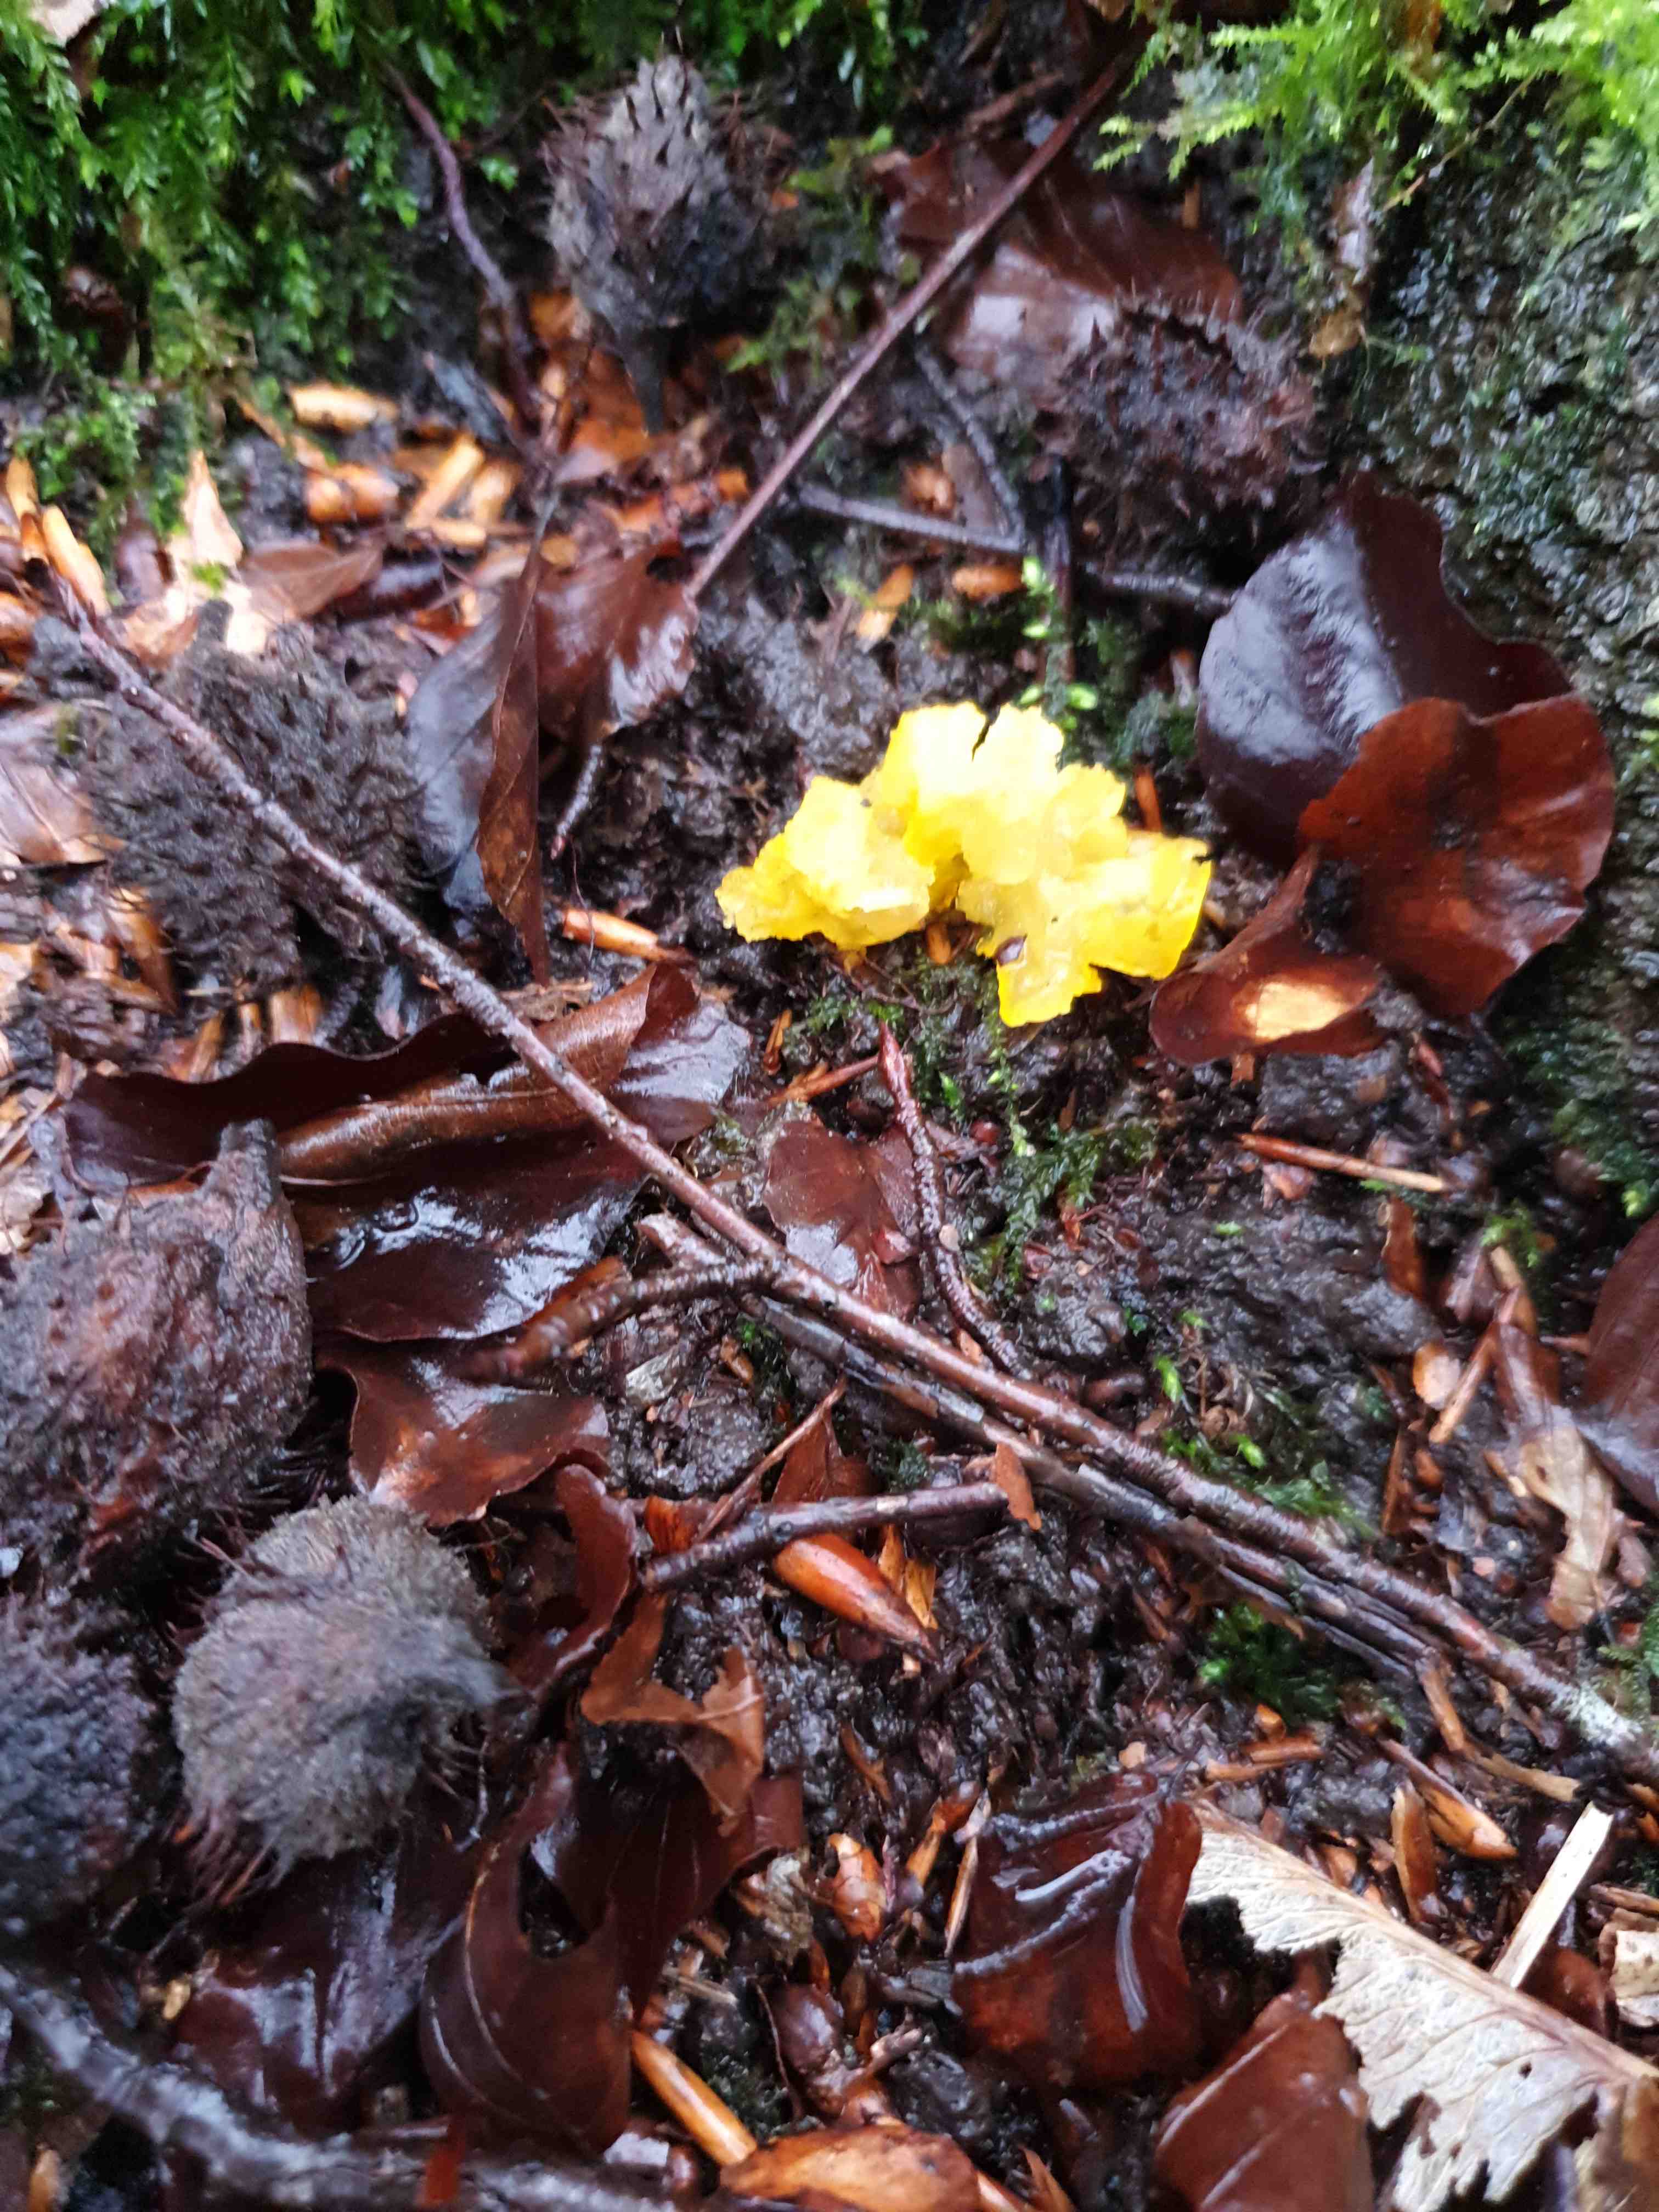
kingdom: Fungi
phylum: Basidiomycota
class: Tremellomycetes
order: Tremellales
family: Tremellaceae
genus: Tremella
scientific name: Tremella mesenterica
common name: gul bævresvamp
